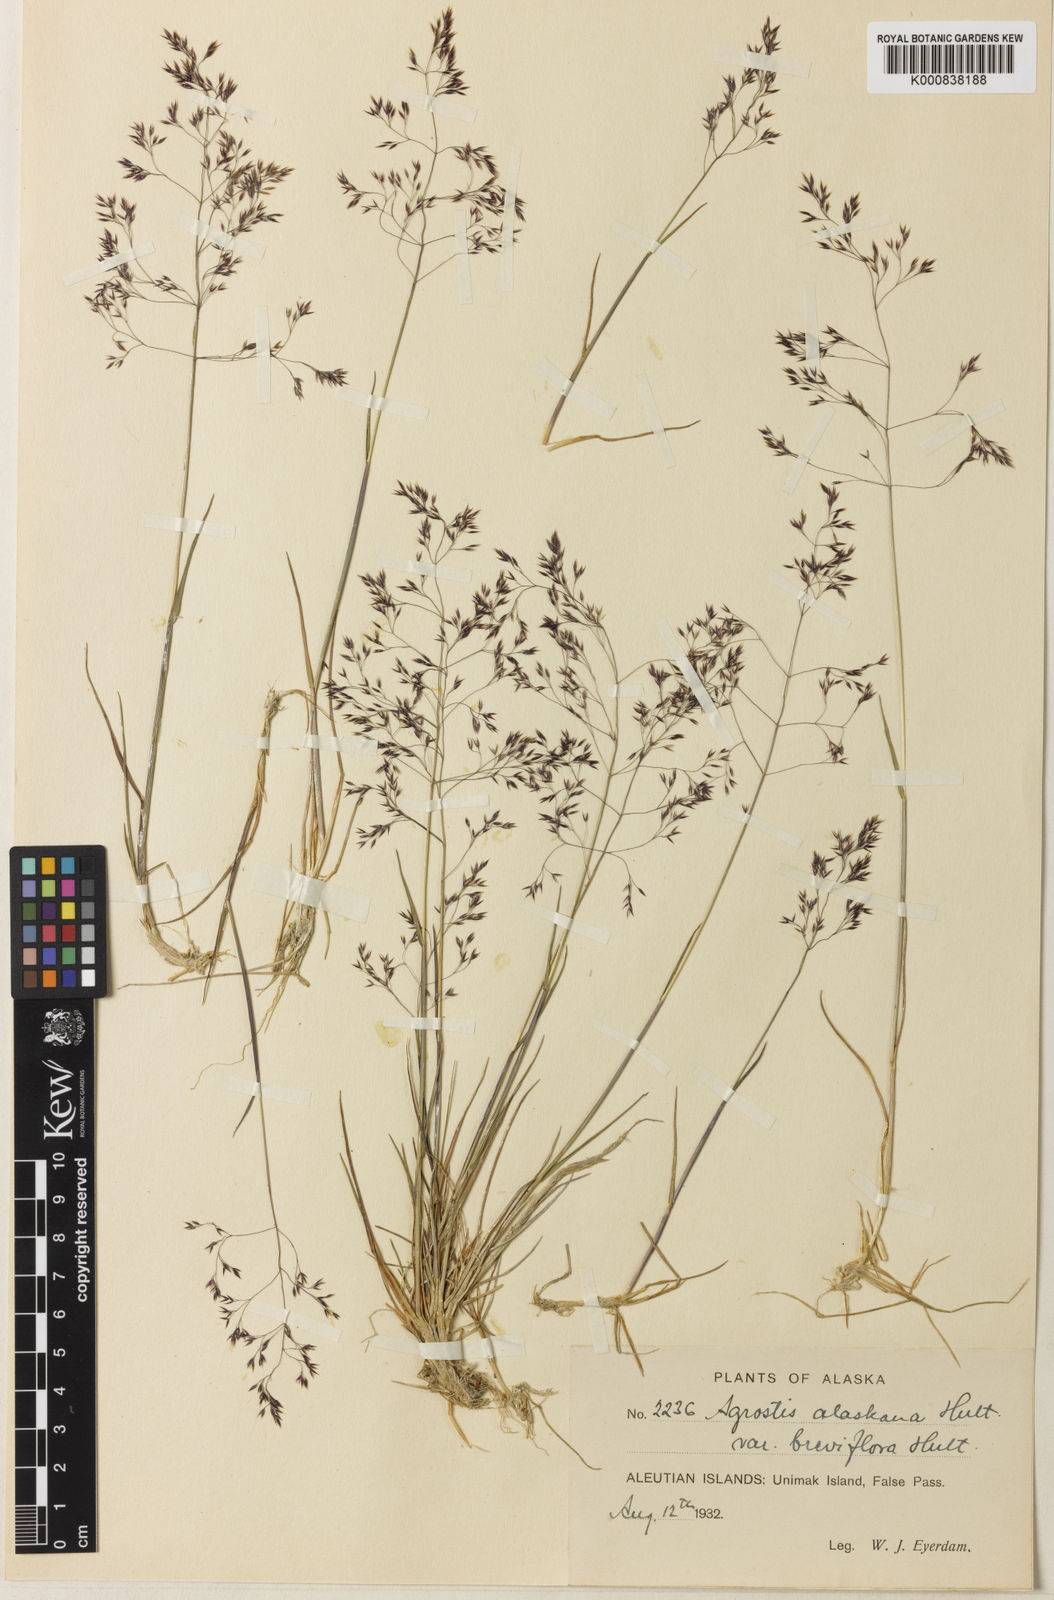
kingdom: Plantae
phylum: Tracheophyta
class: Liliopsida
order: Poales
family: Poaceae
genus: Agrostis
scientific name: Agrostis
